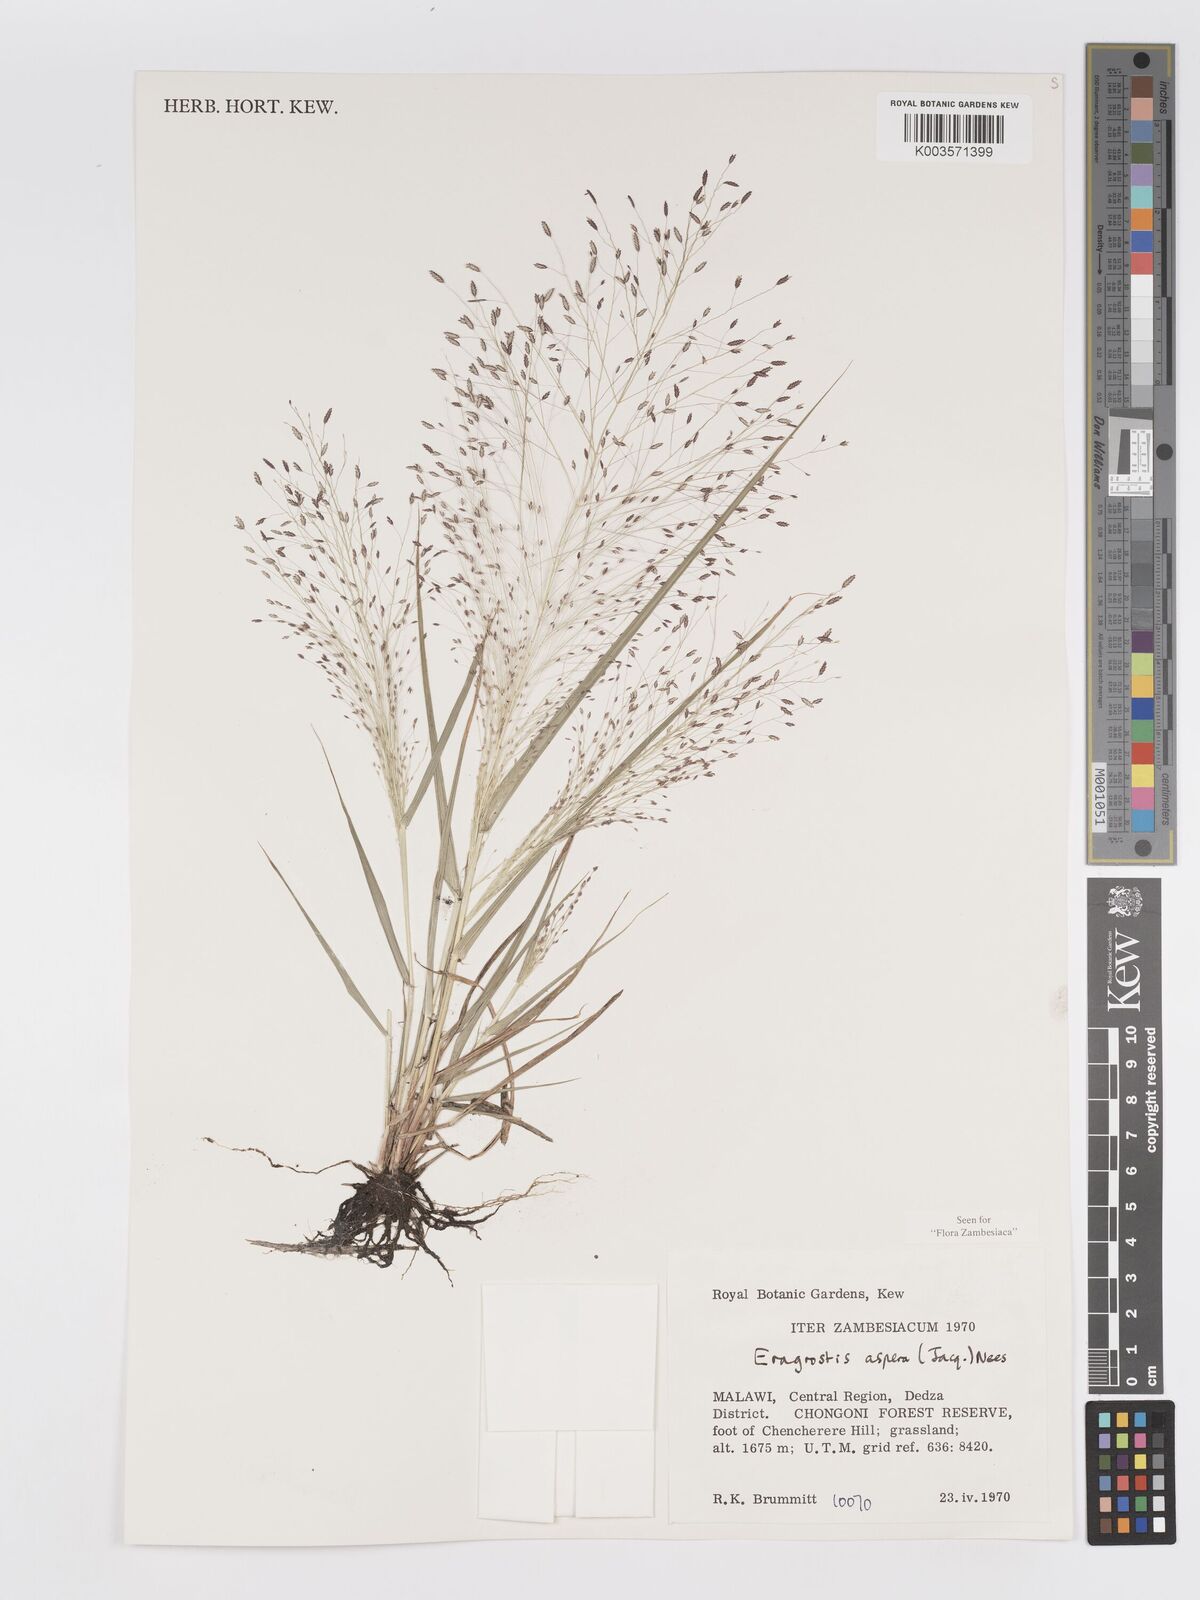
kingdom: Plantae
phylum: Tracheophyta
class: Liliopsida
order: Poales
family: Poaceae
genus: Eragrostis
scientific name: Eragrostis aspera
